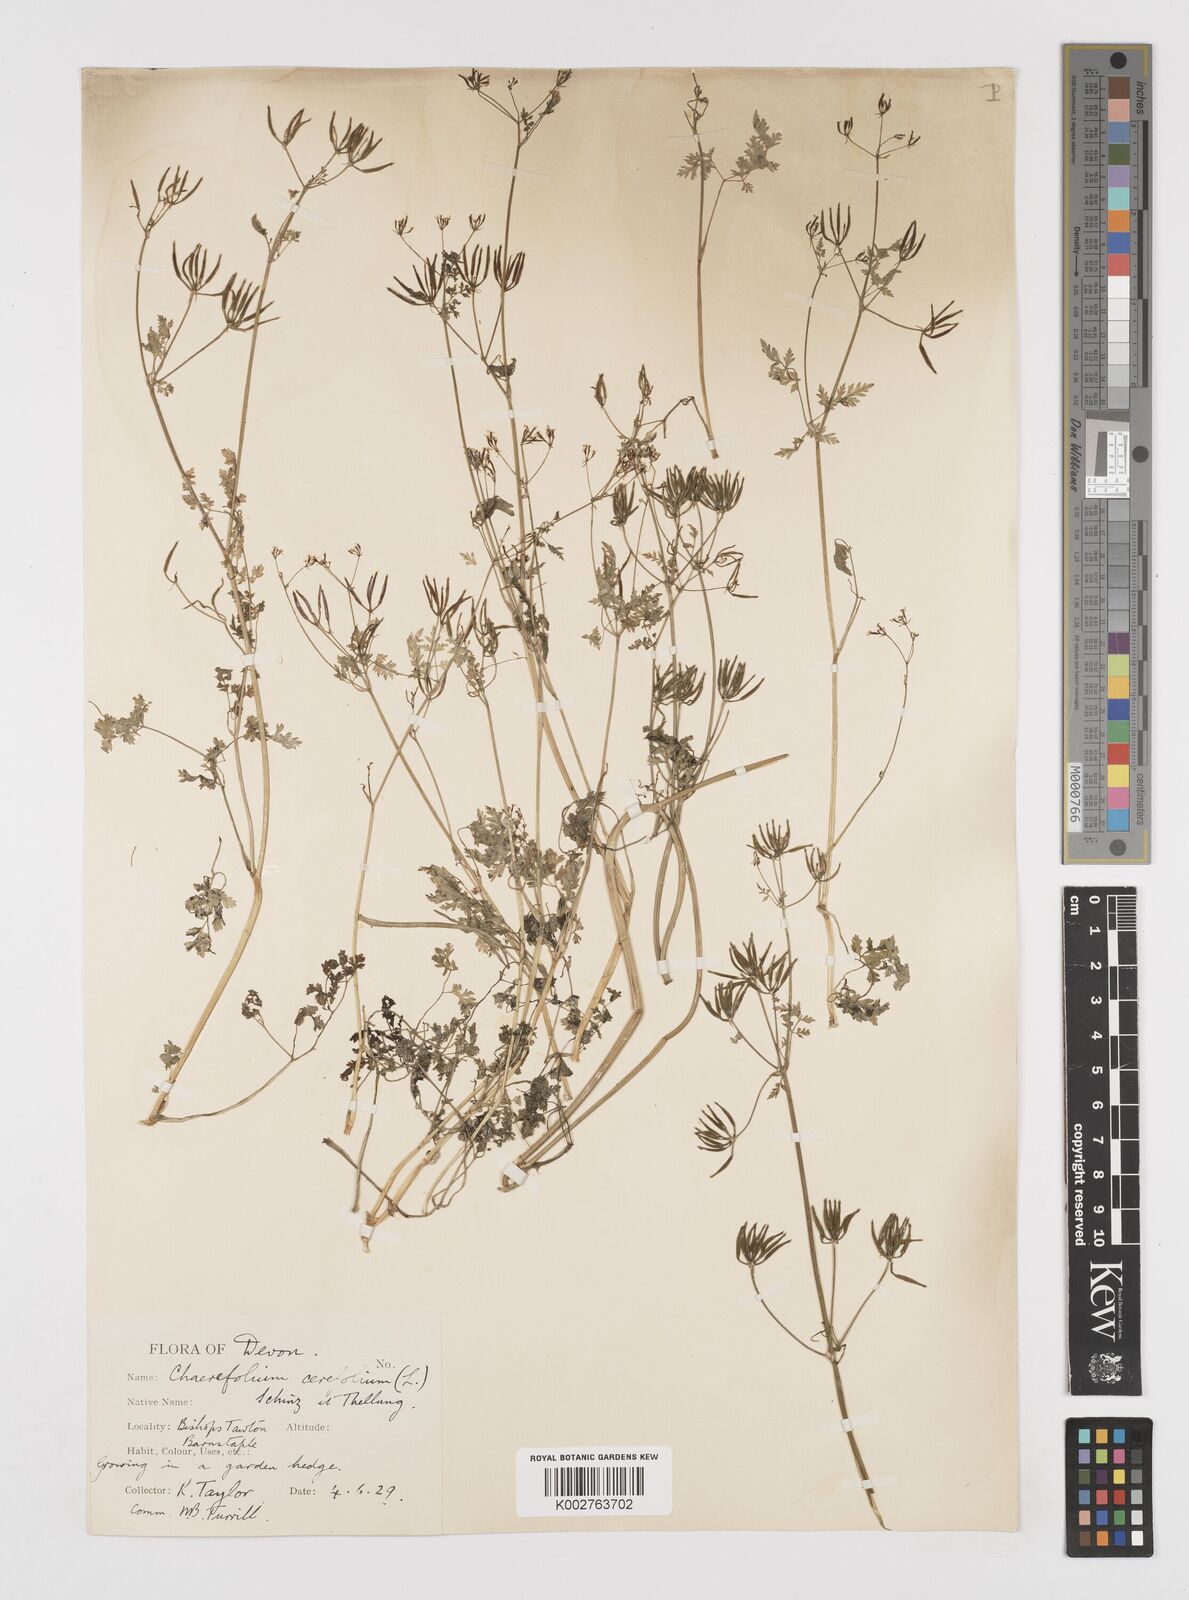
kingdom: Plantae
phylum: Tracheophyta
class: Magnoliopsida
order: Apiales
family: Apiaceae
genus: Anthriscus
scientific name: Anthriscus cerefolium
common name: Garden chervil
